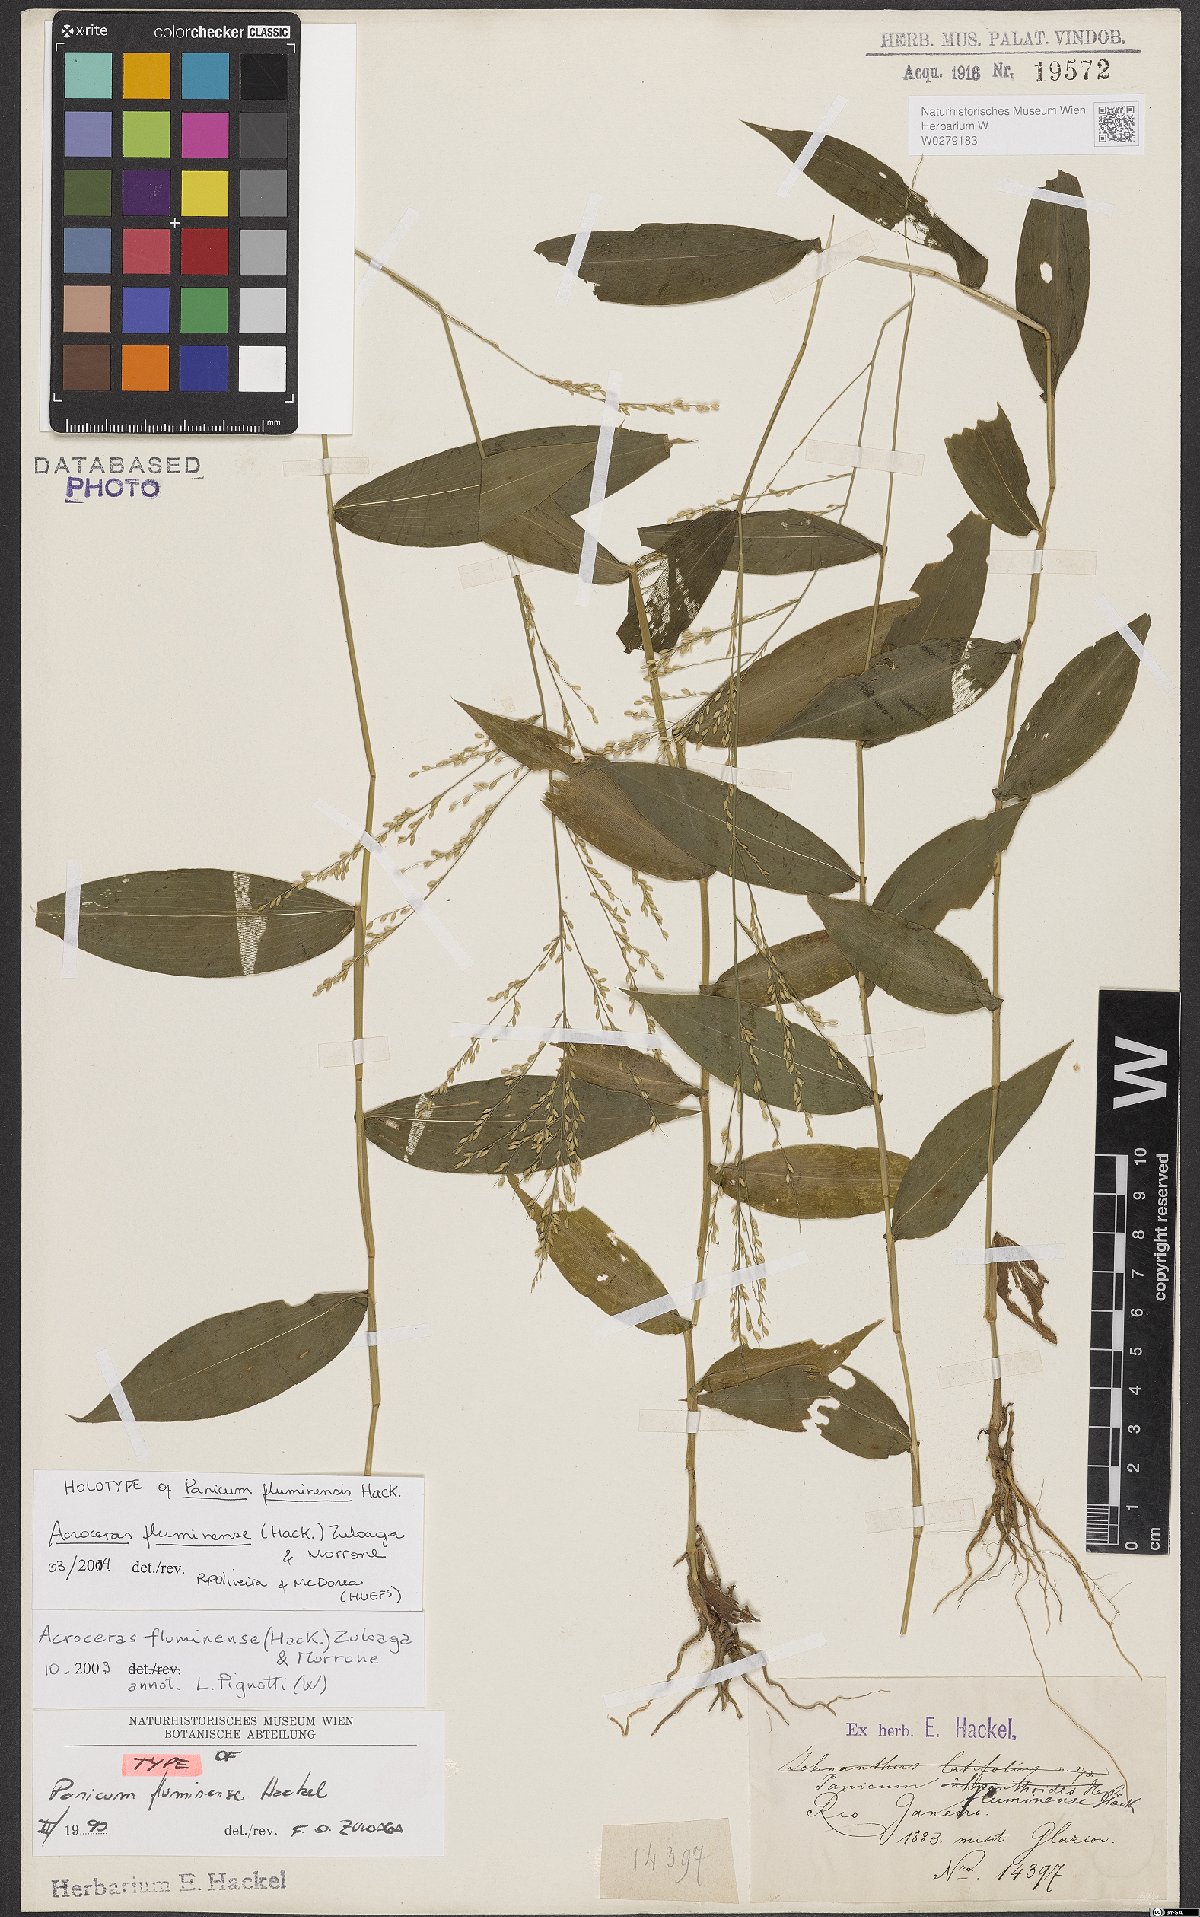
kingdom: Plantae
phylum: Tracheophyta
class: Liliopsida
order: Poales
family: Poaceae
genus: Acroceras
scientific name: Acroceras fluminense
